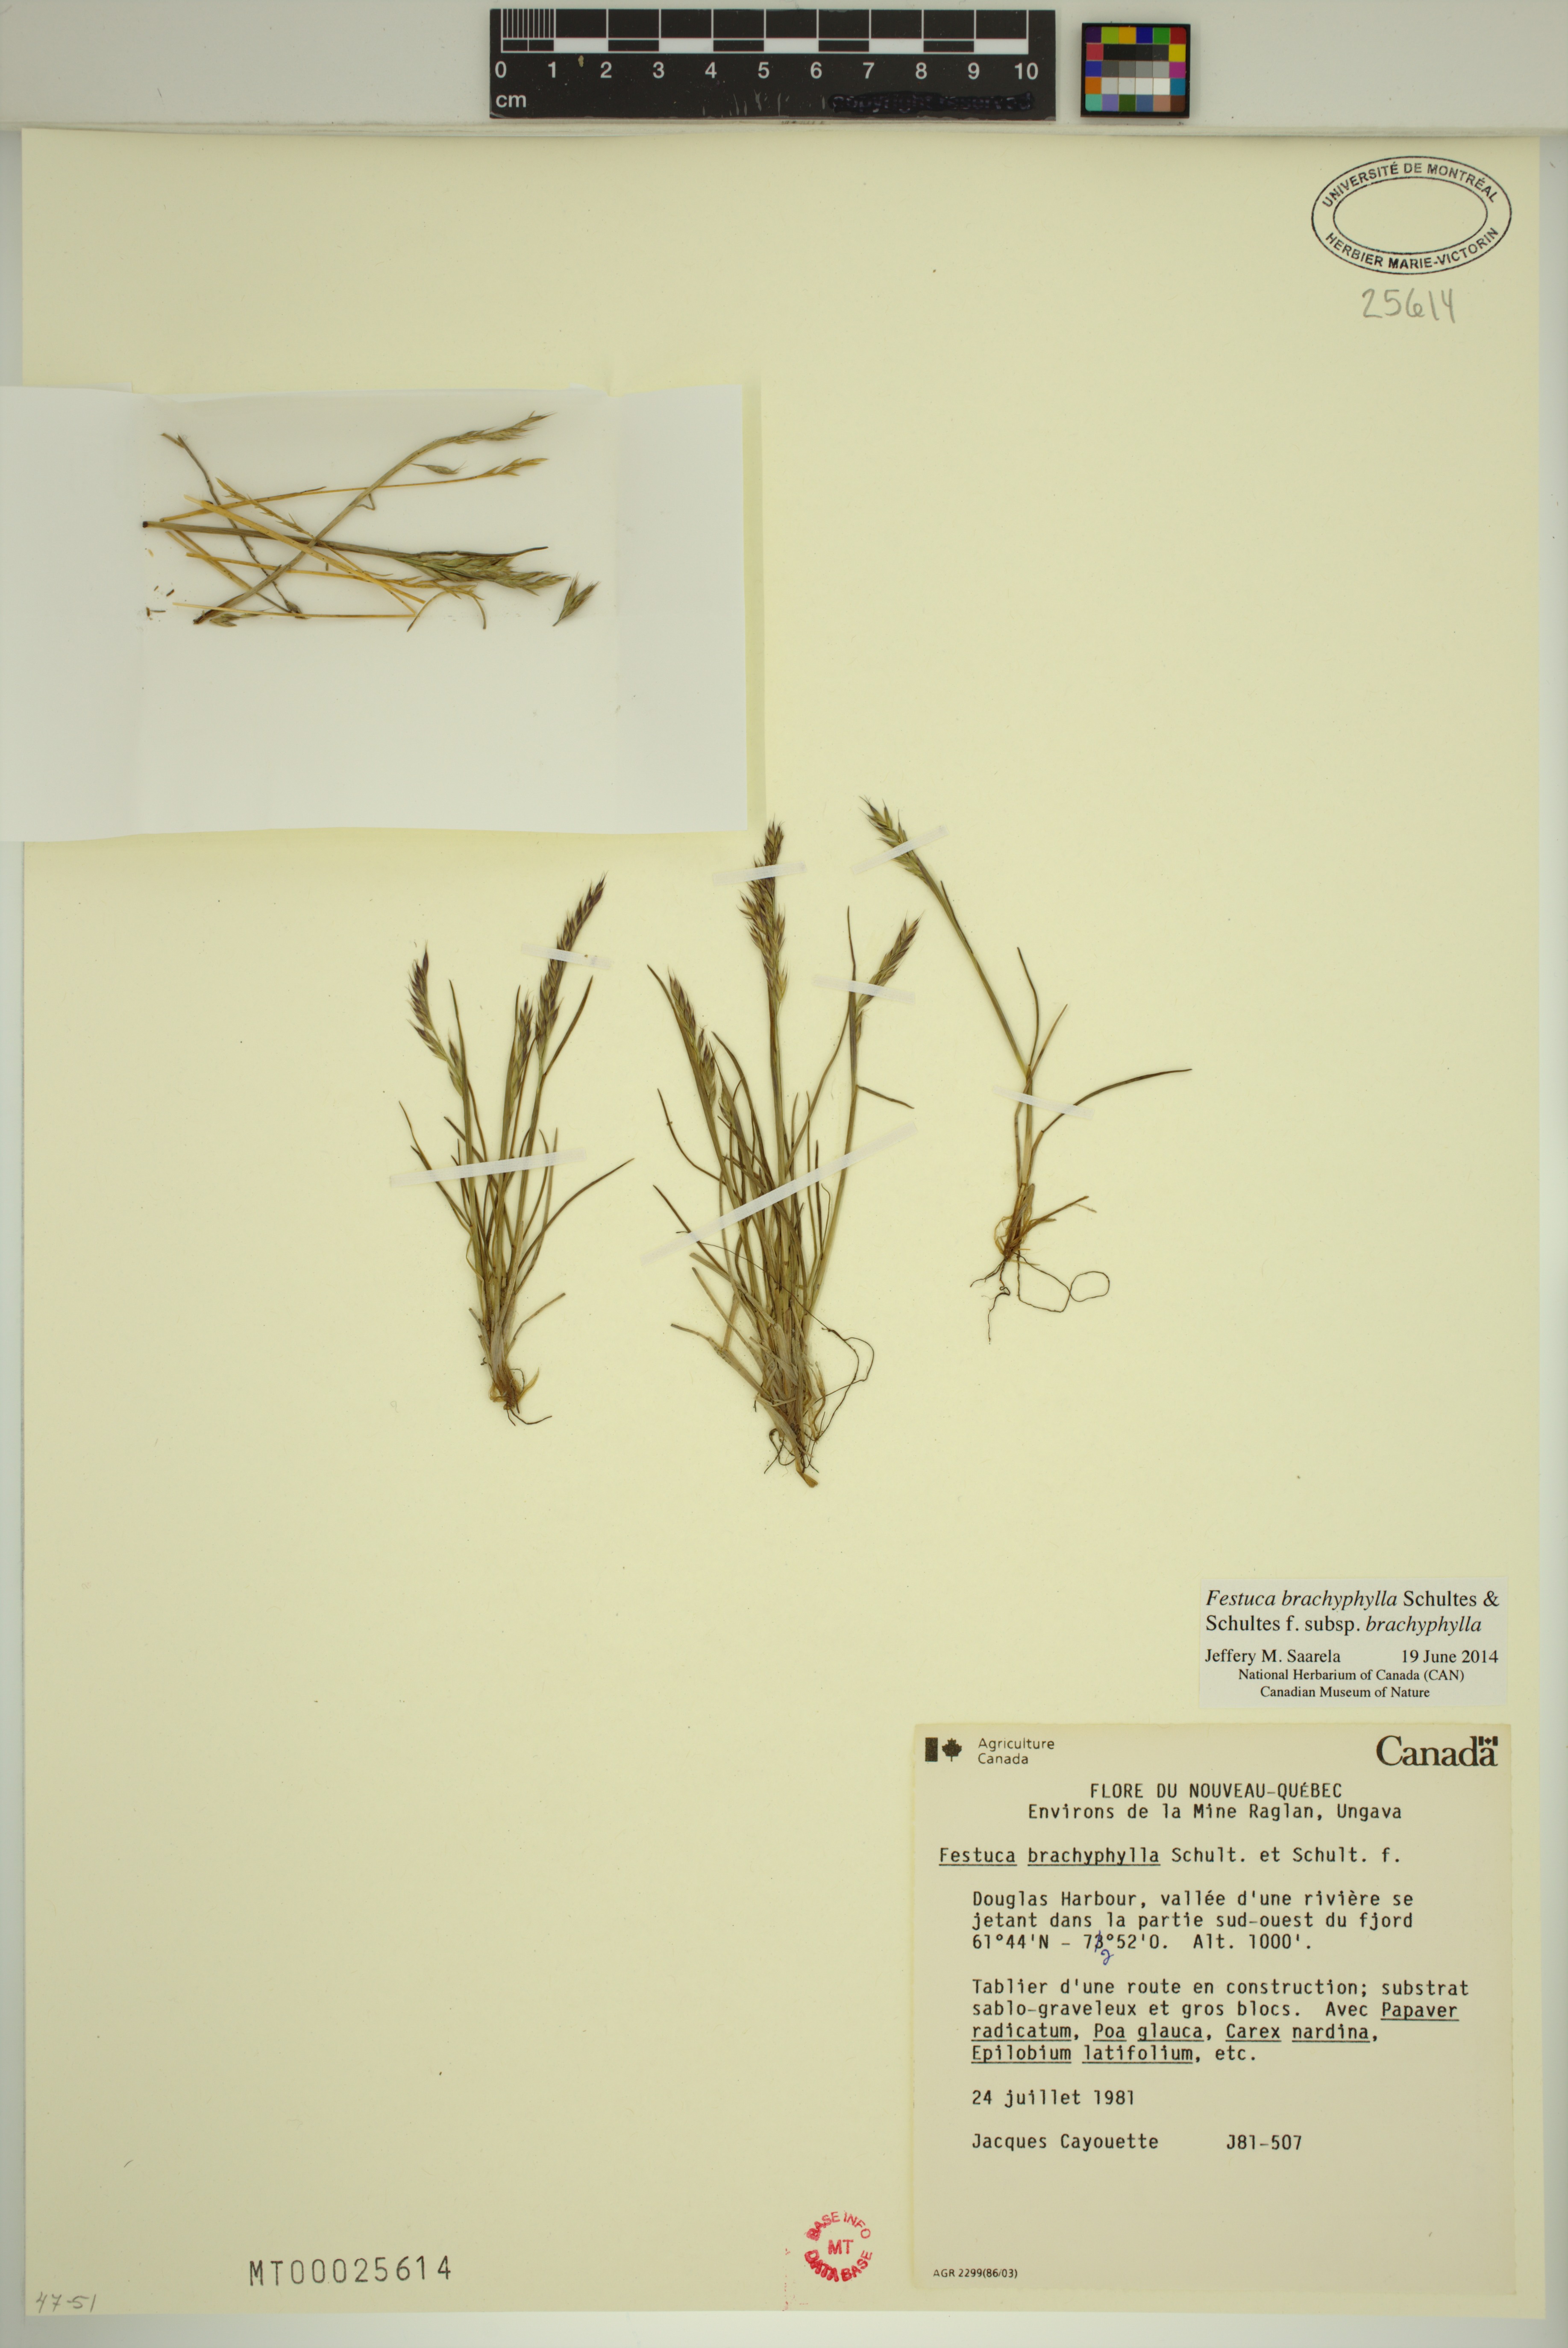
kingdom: Plantae
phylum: Tracheophyta
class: Liliopsida
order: Poales
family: Poaceae
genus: Festuca
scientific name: Festuca brachyphylla
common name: Alpine fescue
